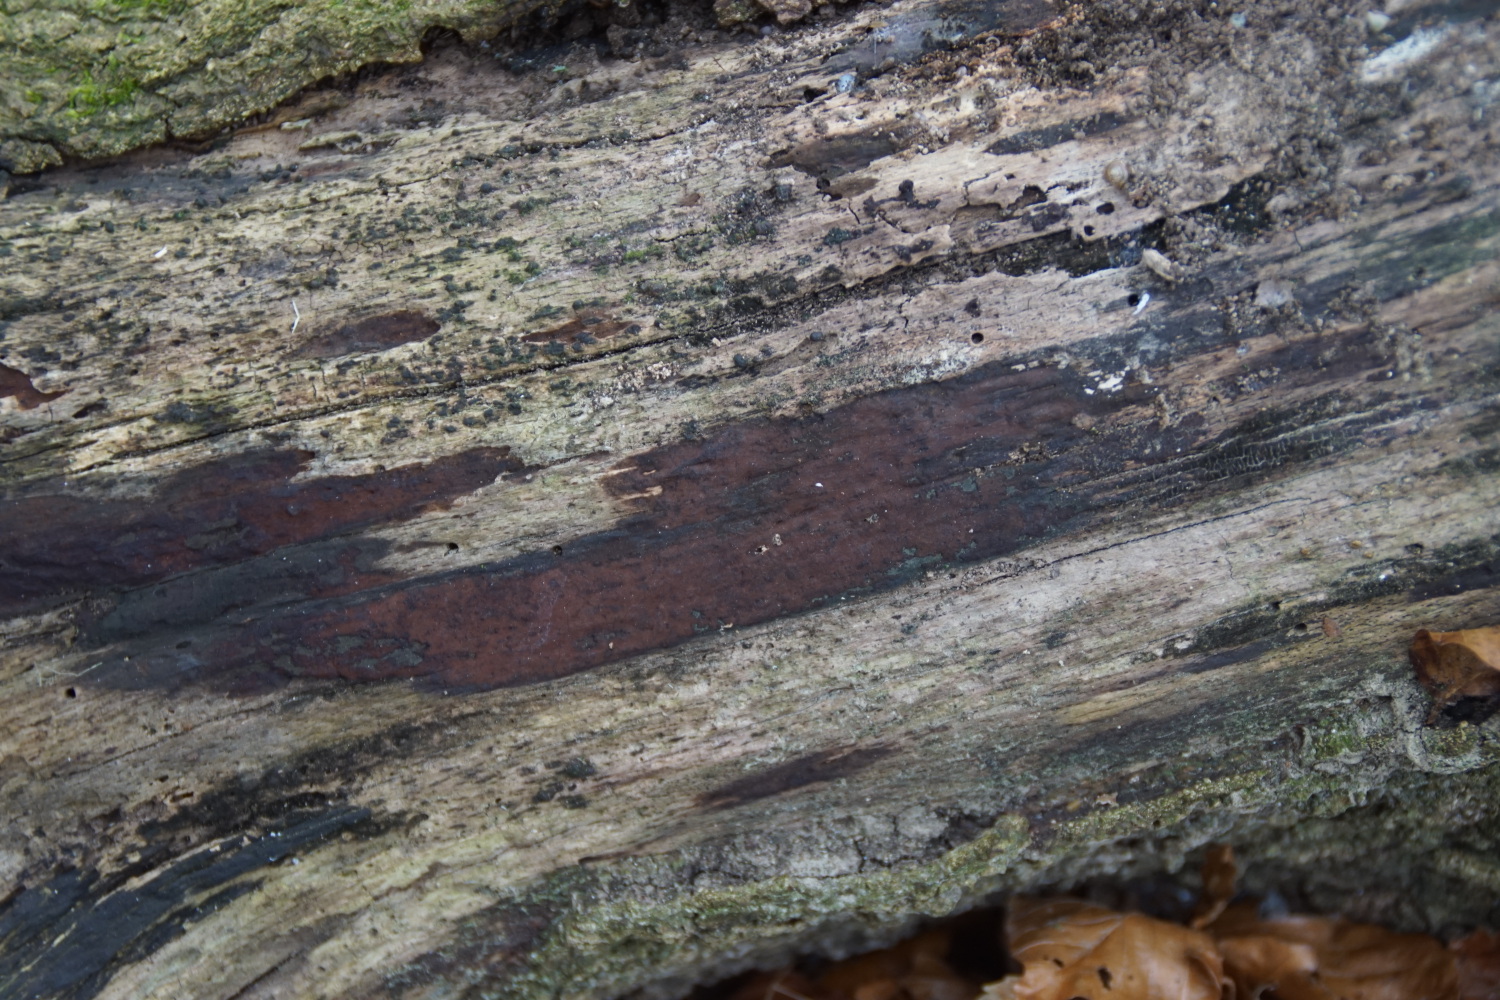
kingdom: Fungi
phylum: Ascomycota
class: Sordariomycetes
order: Xylariales
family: Hypoxylaceae
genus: Hypoxylon
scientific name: Hypoxylon macrocarpum
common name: skorpe-kulbær
